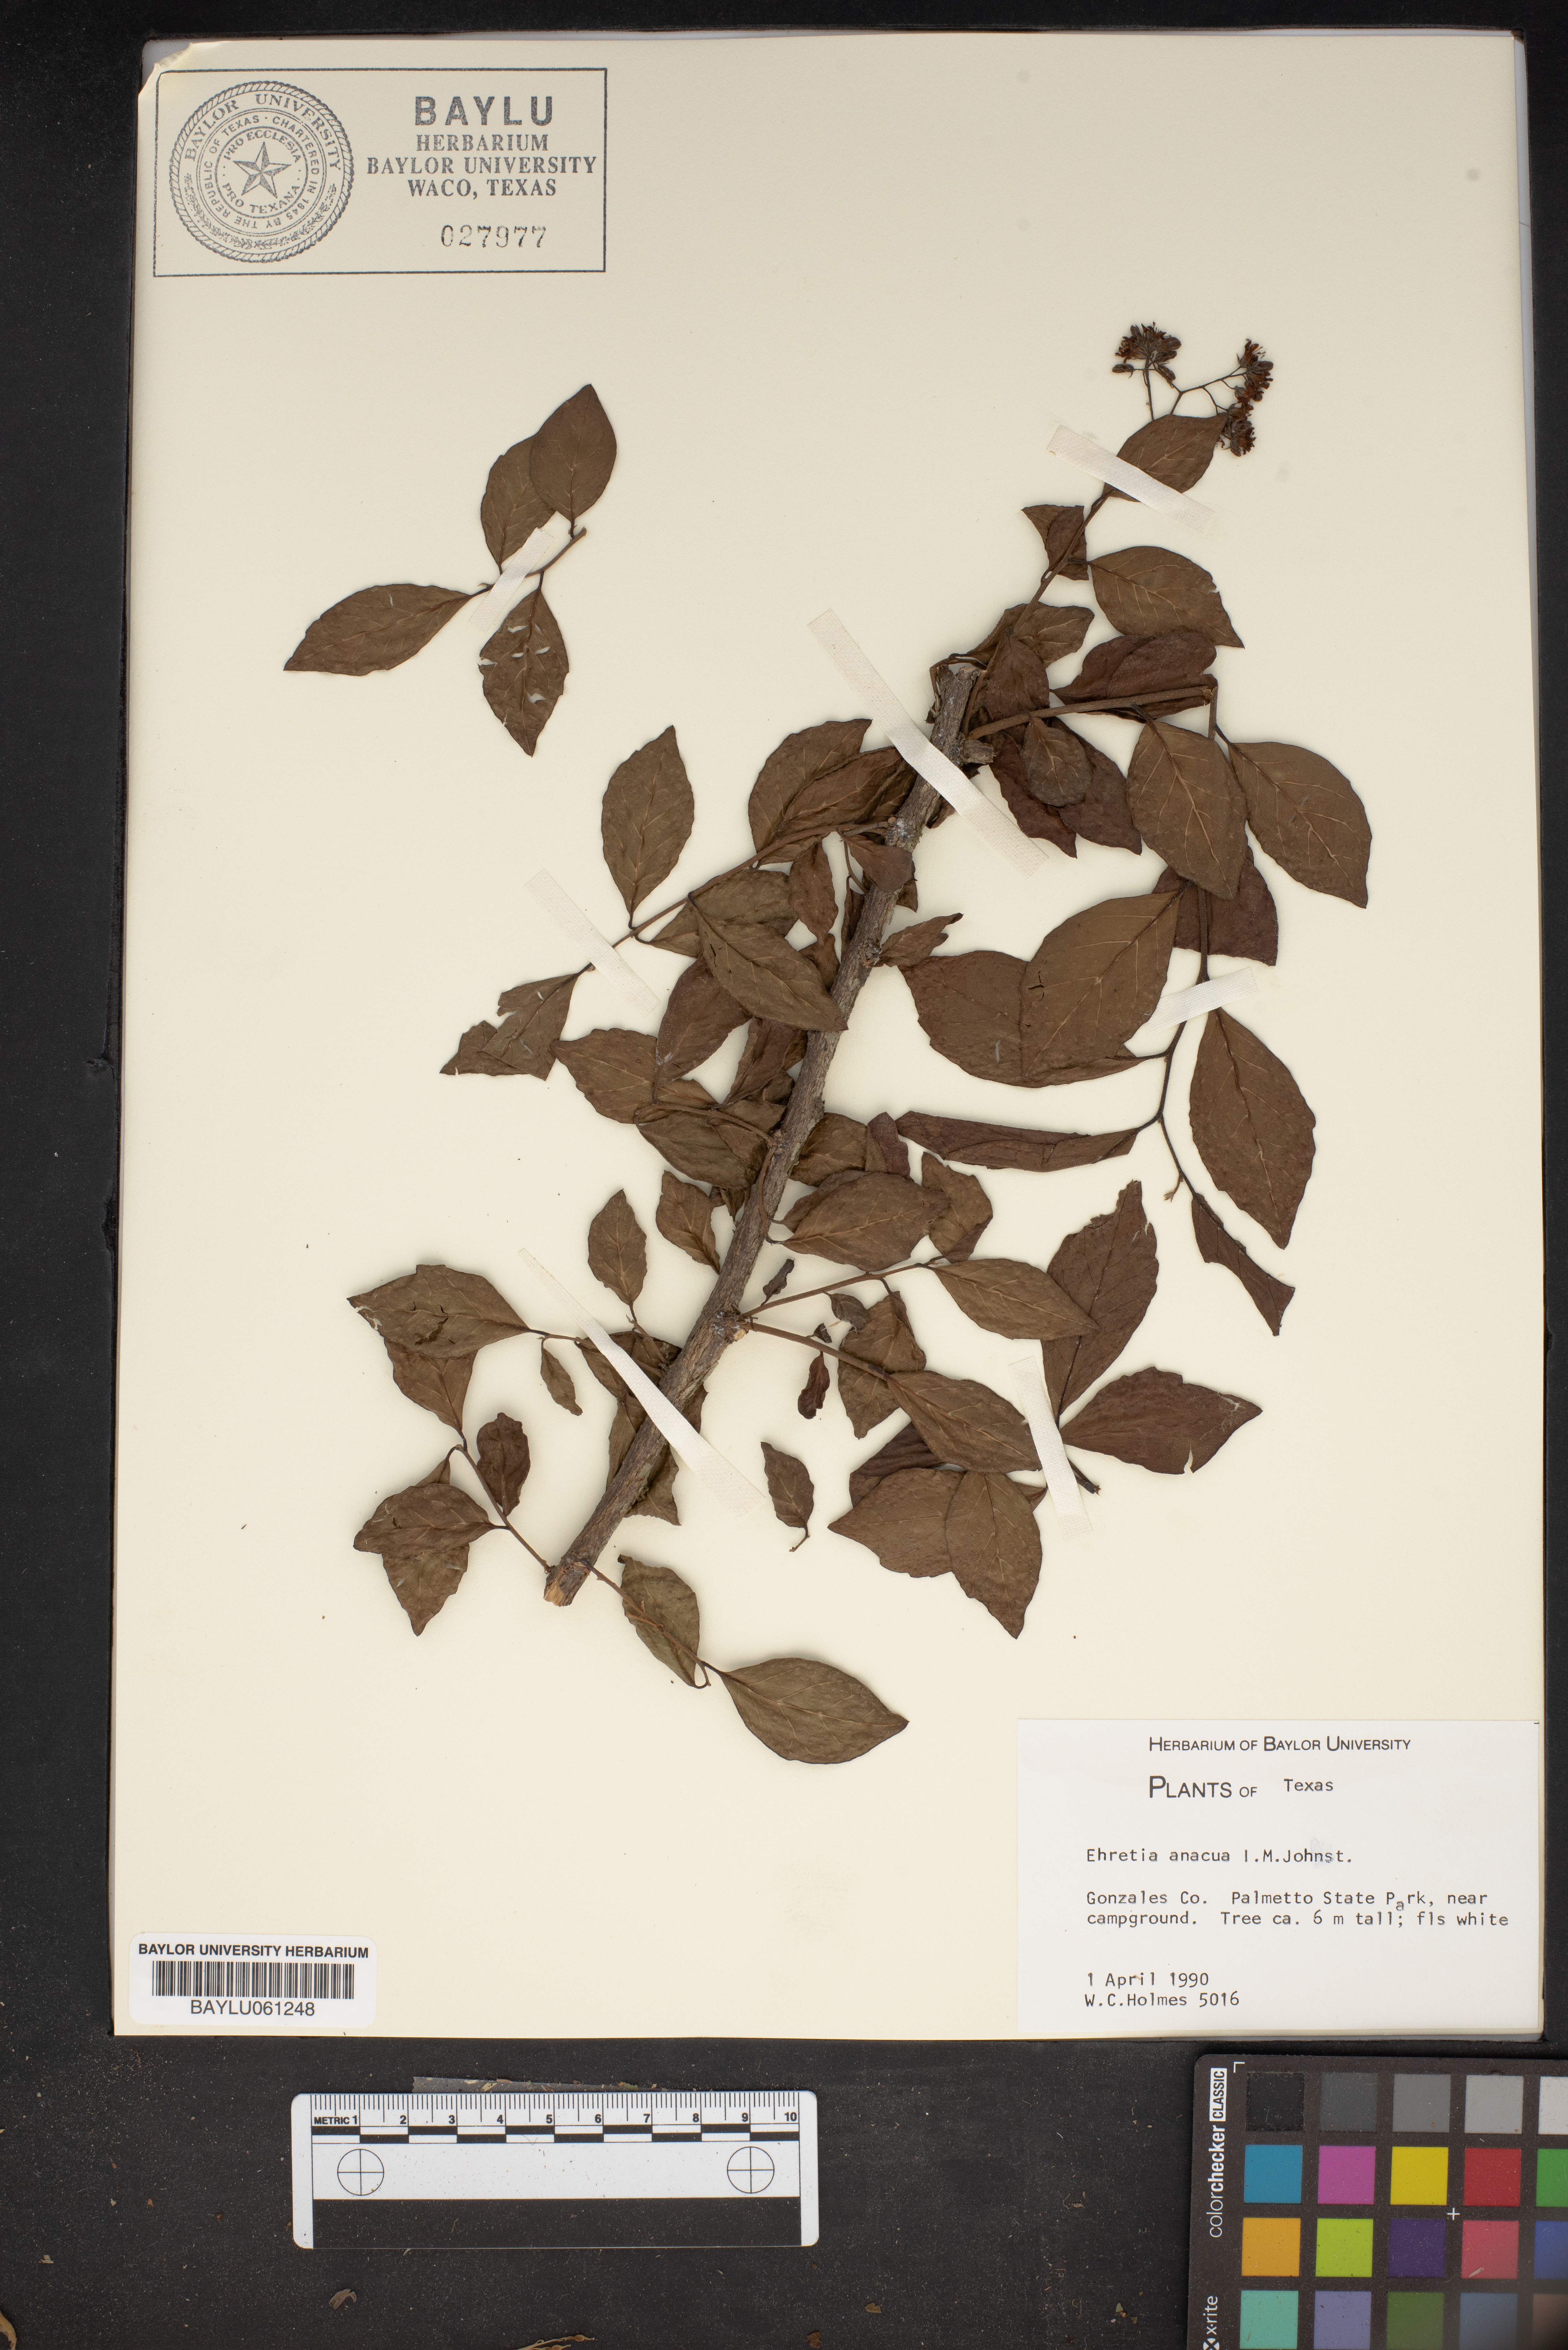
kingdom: Plantae
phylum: Tracheophyta
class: Magnoliopsida
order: Boraginales
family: Ehretiaceae
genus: Ehretia
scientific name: Ehretia anacua
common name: Sugarberry
